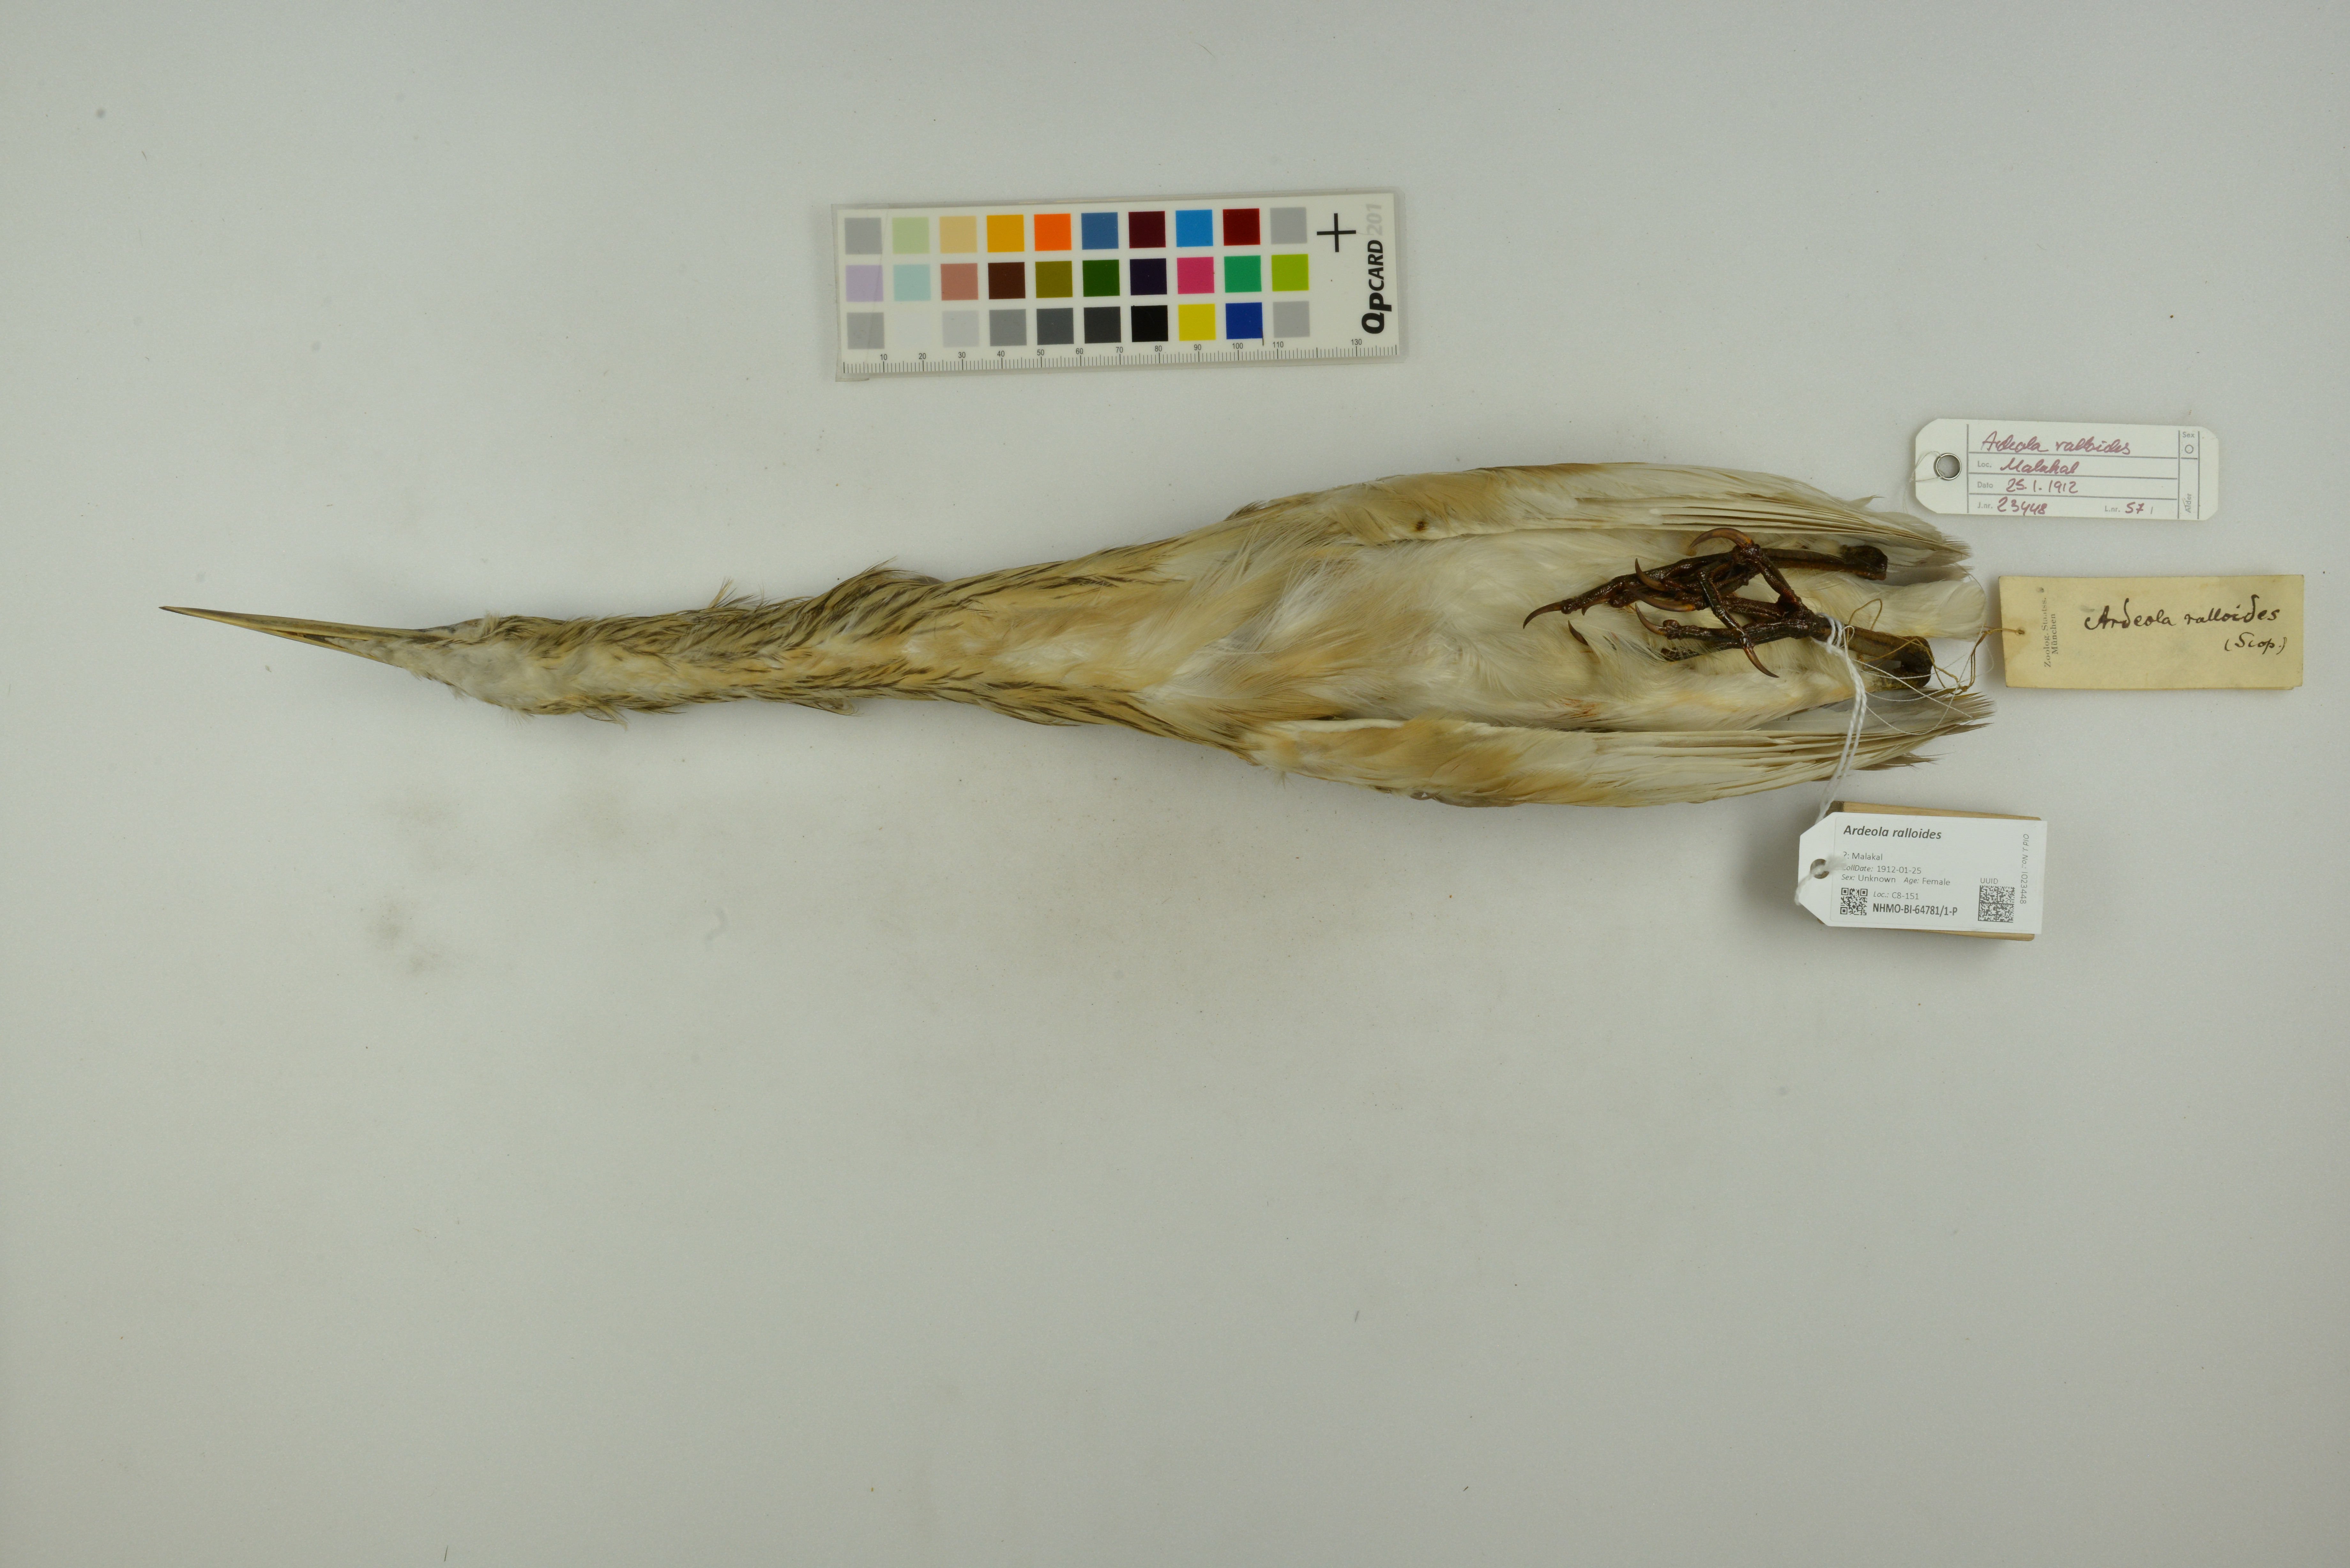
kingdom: Animalia
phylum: Chordata
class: Aves
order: Pelecaniformes
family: Ardeidae
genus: Ardeola
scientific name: Ardeola ralloides
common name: Squacco heron
